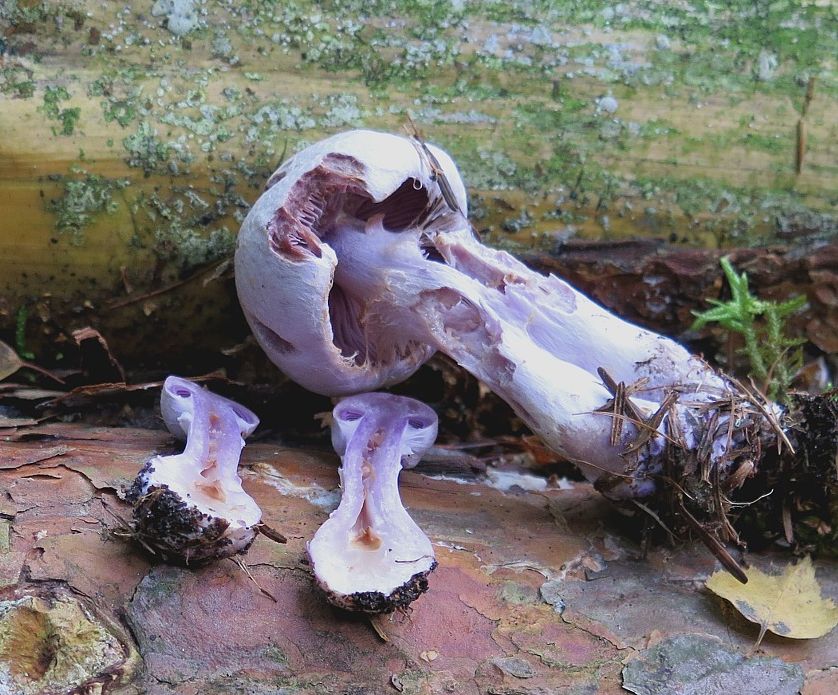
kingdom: Fungi
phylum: Basidiomycota
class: Agaricomycetes
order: Agaricales
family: Cortinariaceae
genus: Cortinarius
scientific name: Cortinarius camphoratus
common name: stinkende slørhat
